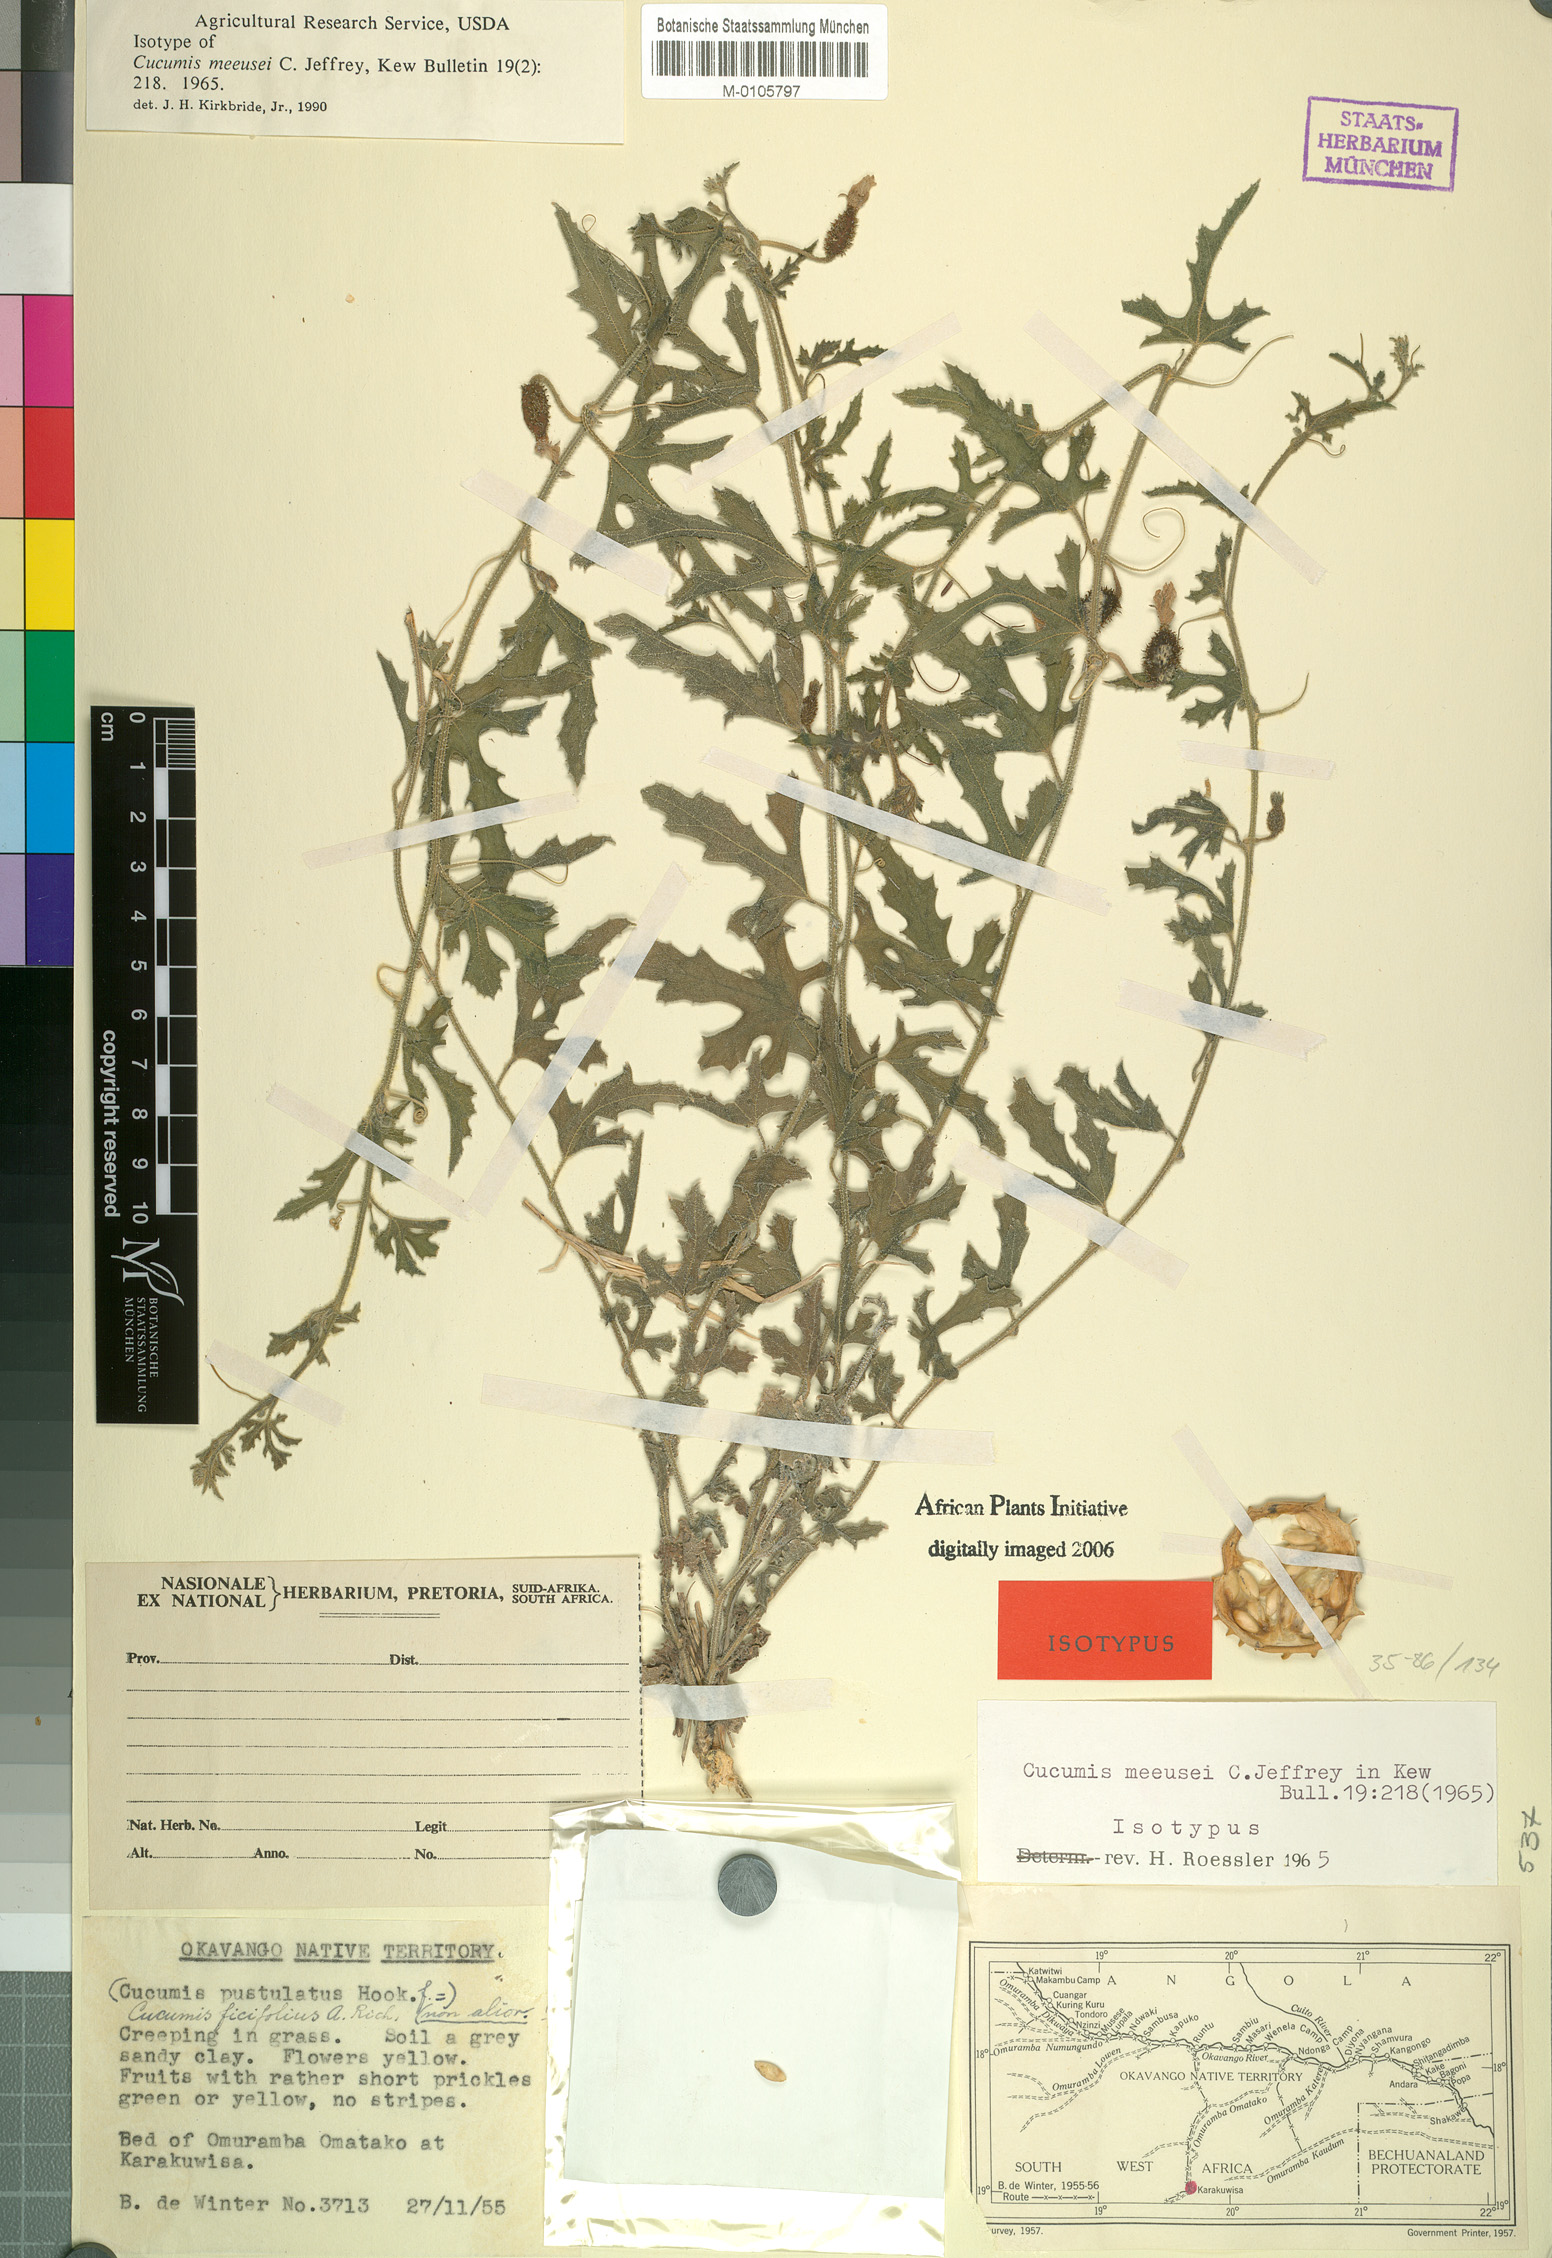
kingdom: Plantae
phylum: Tracheophyta
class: Magnoliopsida
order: Cucurbitales
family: Cucurbitaceae
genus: Cucumis
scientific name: Cucumis meeusei
